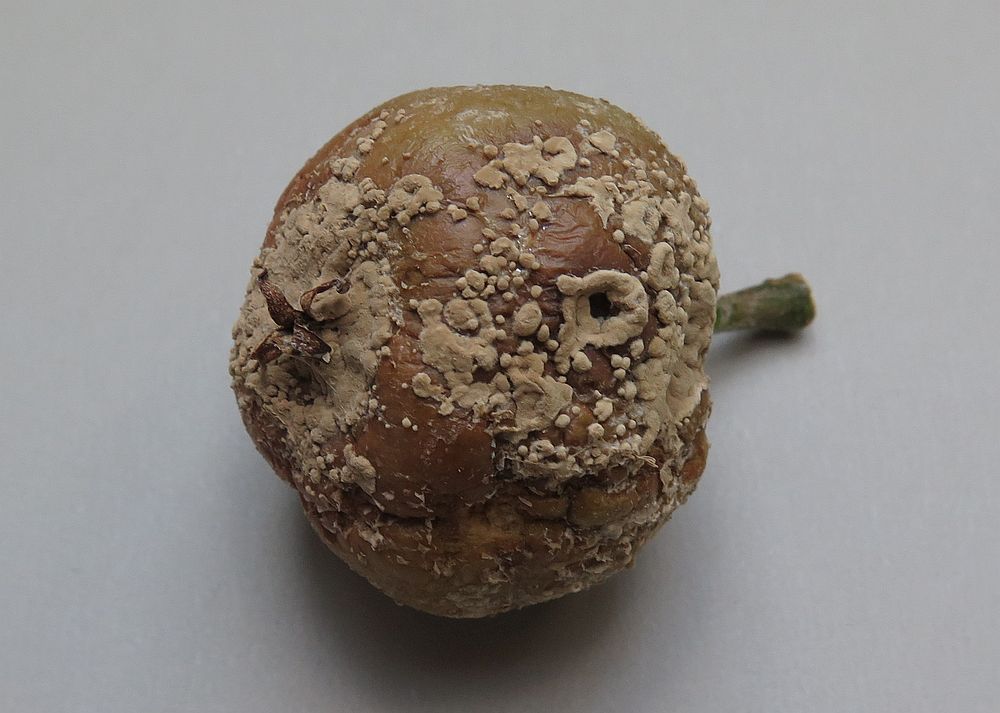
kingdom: Fungi
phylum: Ascomycota
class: Leotiomycetes
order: Helotiales
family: Sclerotiniaceae
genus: Monilinia
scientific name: Monilinia fructigena
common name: æble-knoldskive
